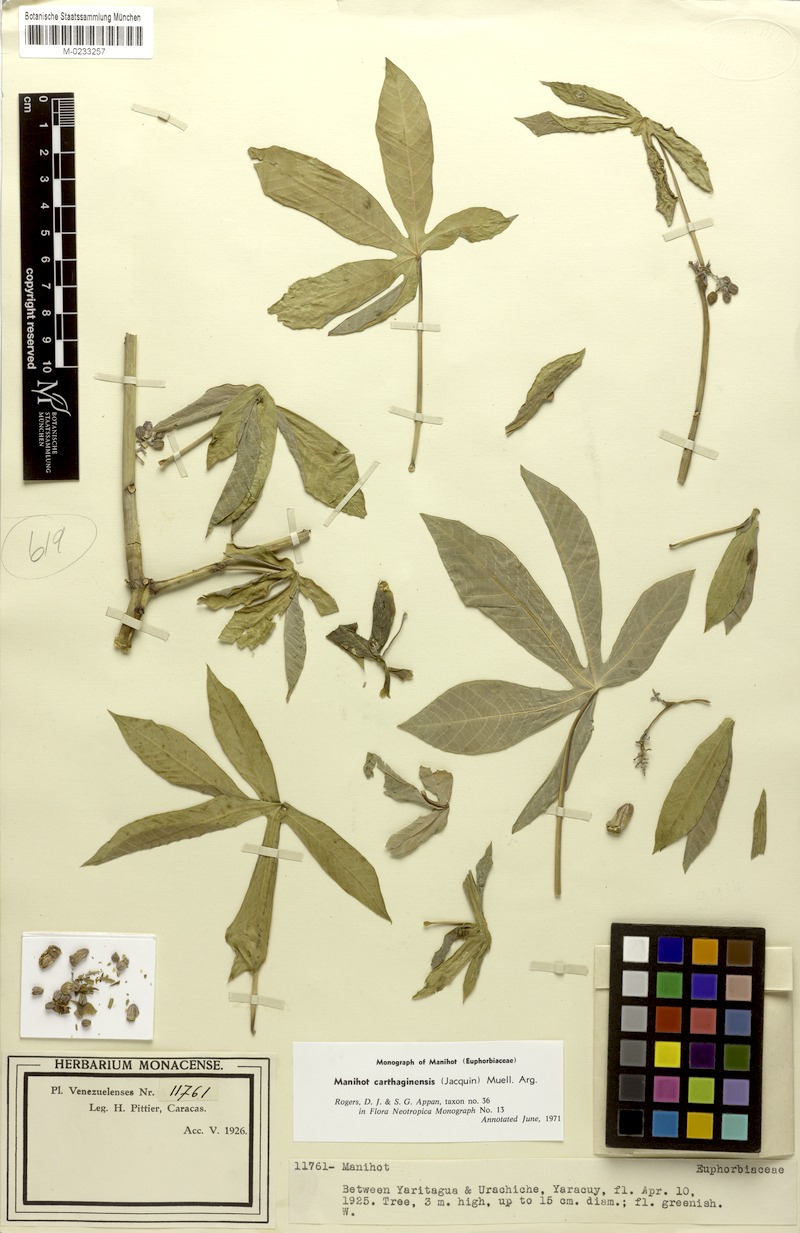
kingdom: Plantae
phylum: Tracheophyta
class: Magnoliopsida
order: Malpighiales
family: Euphorbiaceae
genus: Manihot
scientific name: Manihot carthaginensis
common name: Ceara rubbertree
